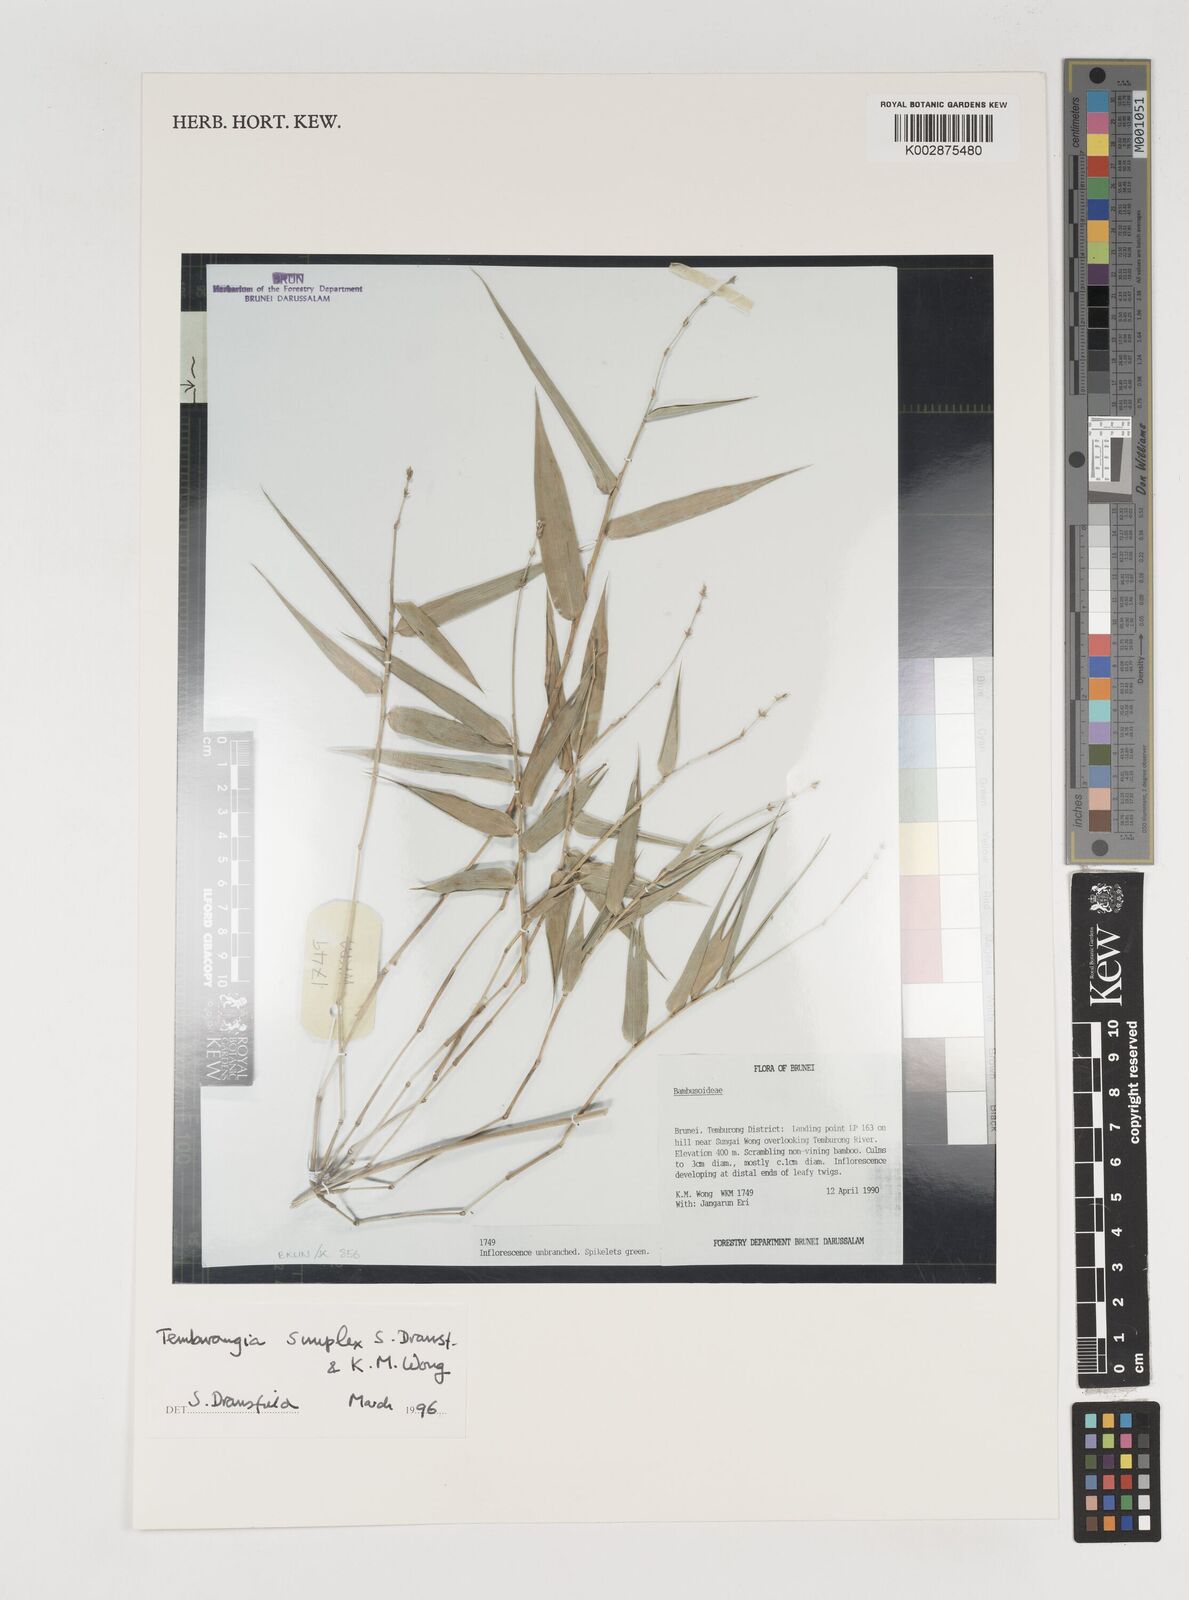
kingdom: Plantae
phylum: Tracheophyta
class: Liliopsida
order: Poales
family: Poaceae
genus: Temburongia
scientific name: Temburongia
